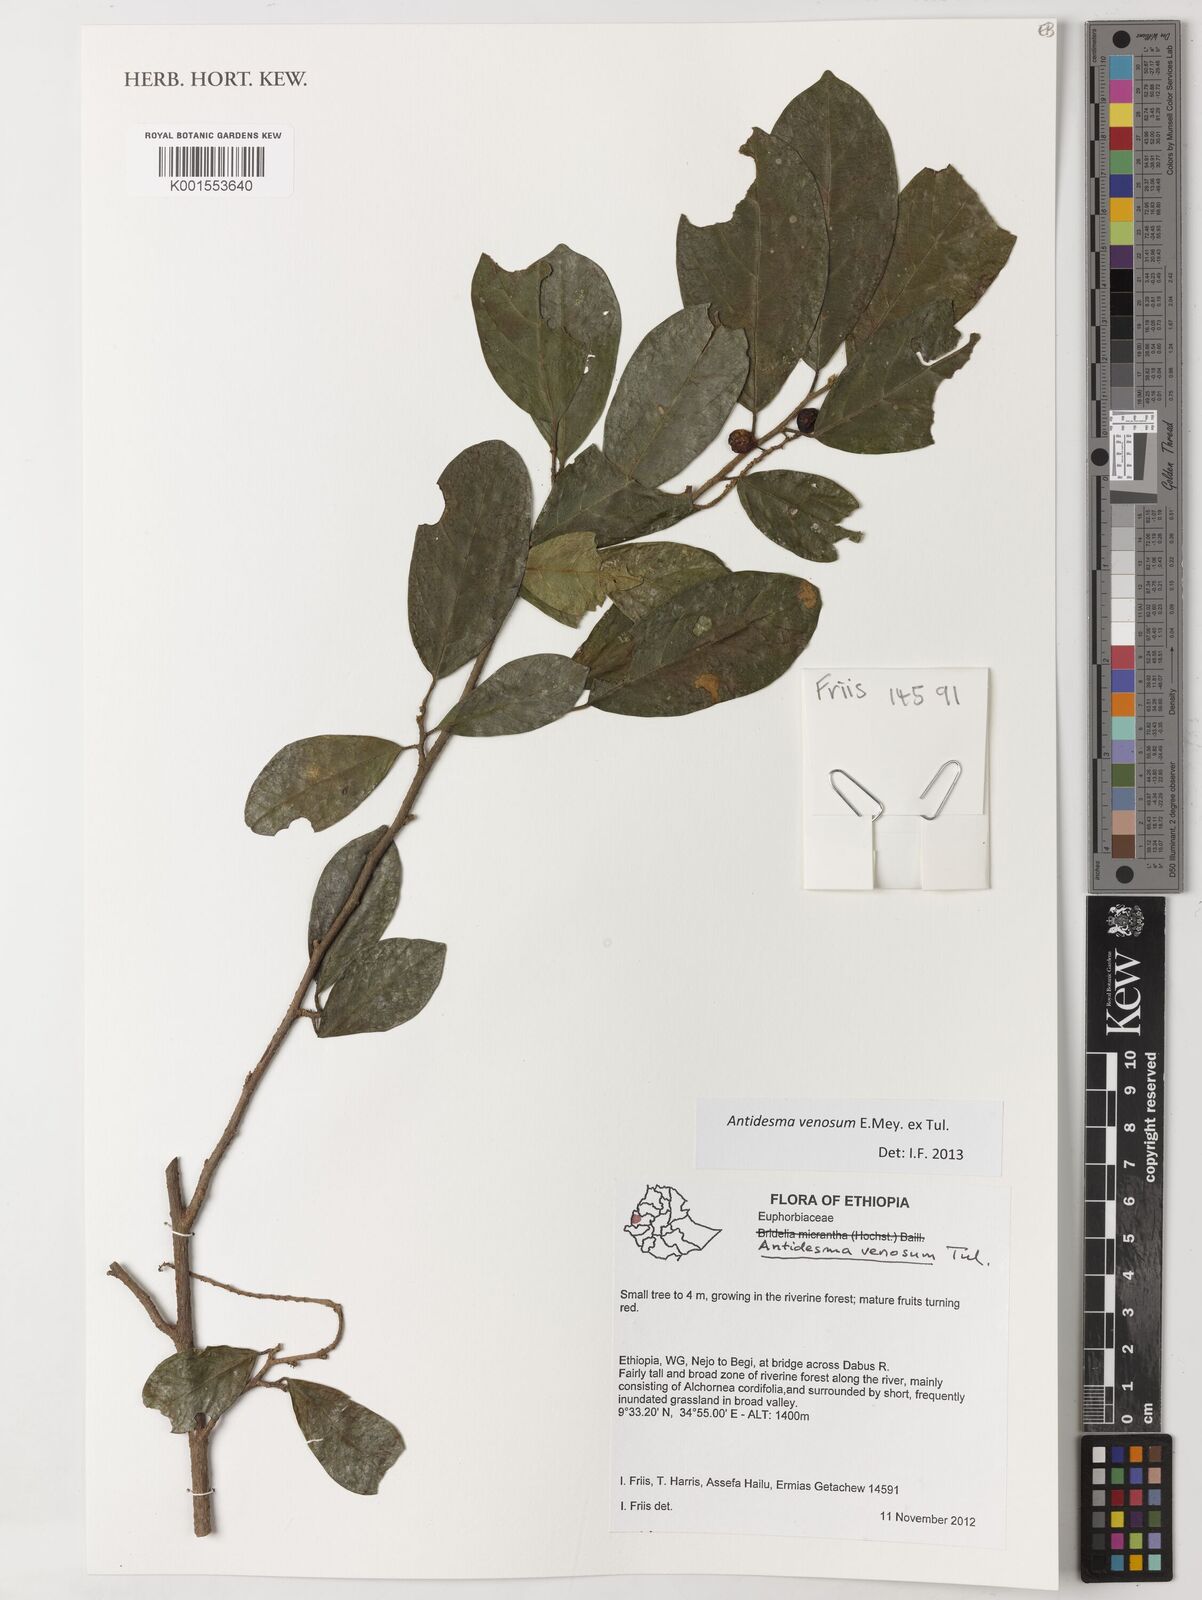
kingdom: Plantae
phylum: Tracheophyta
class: Magnoliopsida
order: Malpighiales
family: Phyllanthaceae
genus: Antidesma
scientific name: Antidesma venosum
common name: Tassel-berry
